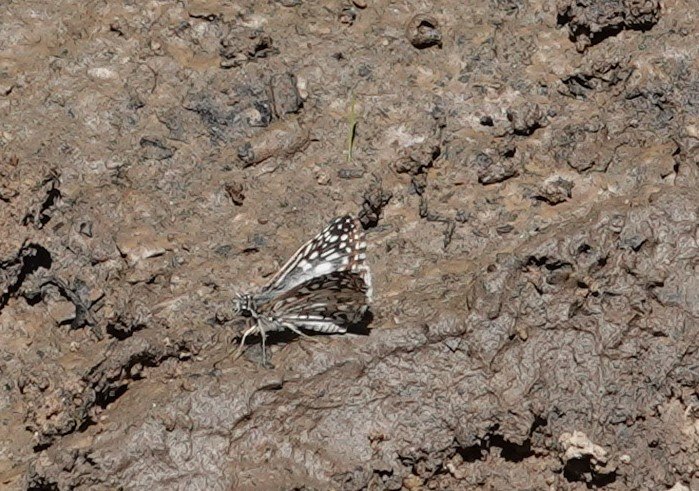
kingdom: Animalia
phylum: Arthropoda
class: Insecta
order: Lepidoptera
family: Hesperiidae
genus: Pyrgus
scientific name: Pyrgus oileus
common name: Tropical Checkered-Skipper
